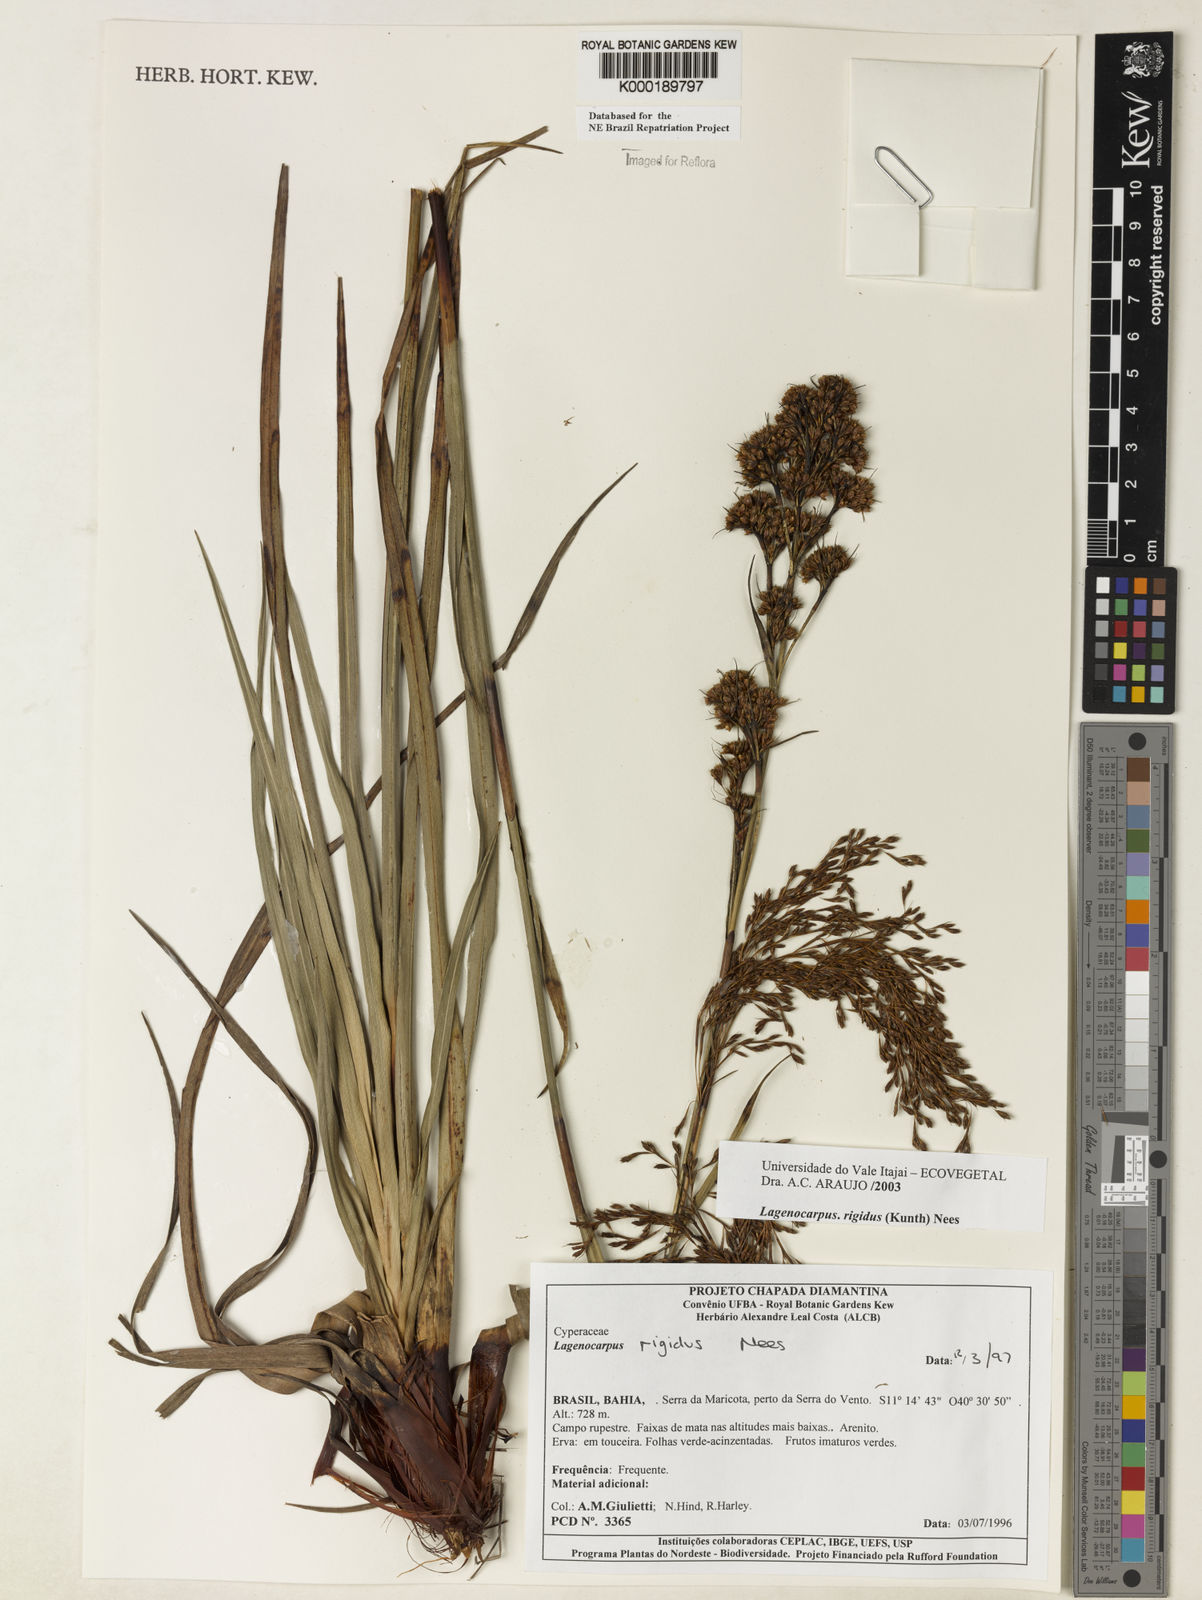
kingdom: Plantae
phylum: Tracheophyta
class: Liliopsida
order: Poales
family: Cyperaceae
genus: Lagenocarpus
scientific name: Lagenocarpus rigidus
